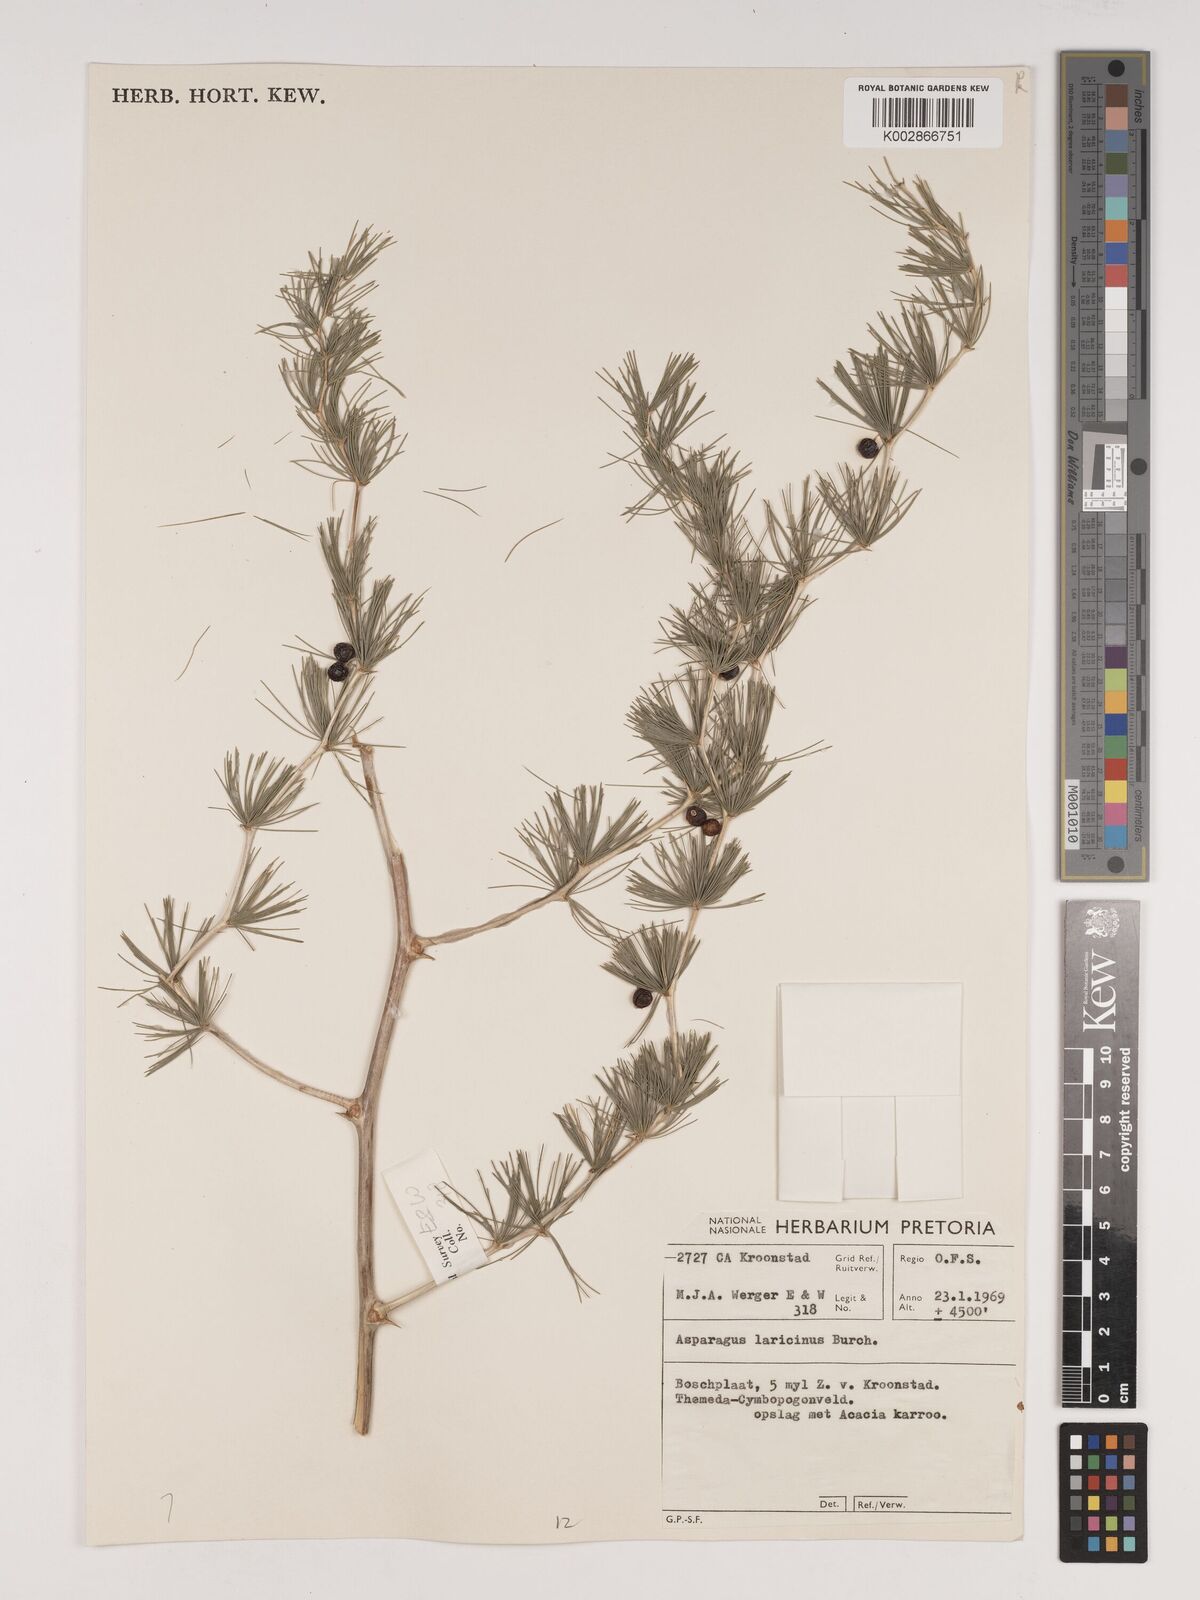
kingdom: Plantae
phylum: Tracheophyta
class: Liliopsida
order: Asparagales
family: Asparagaceae
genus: Asparagus
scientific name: Asparagus laricinus
